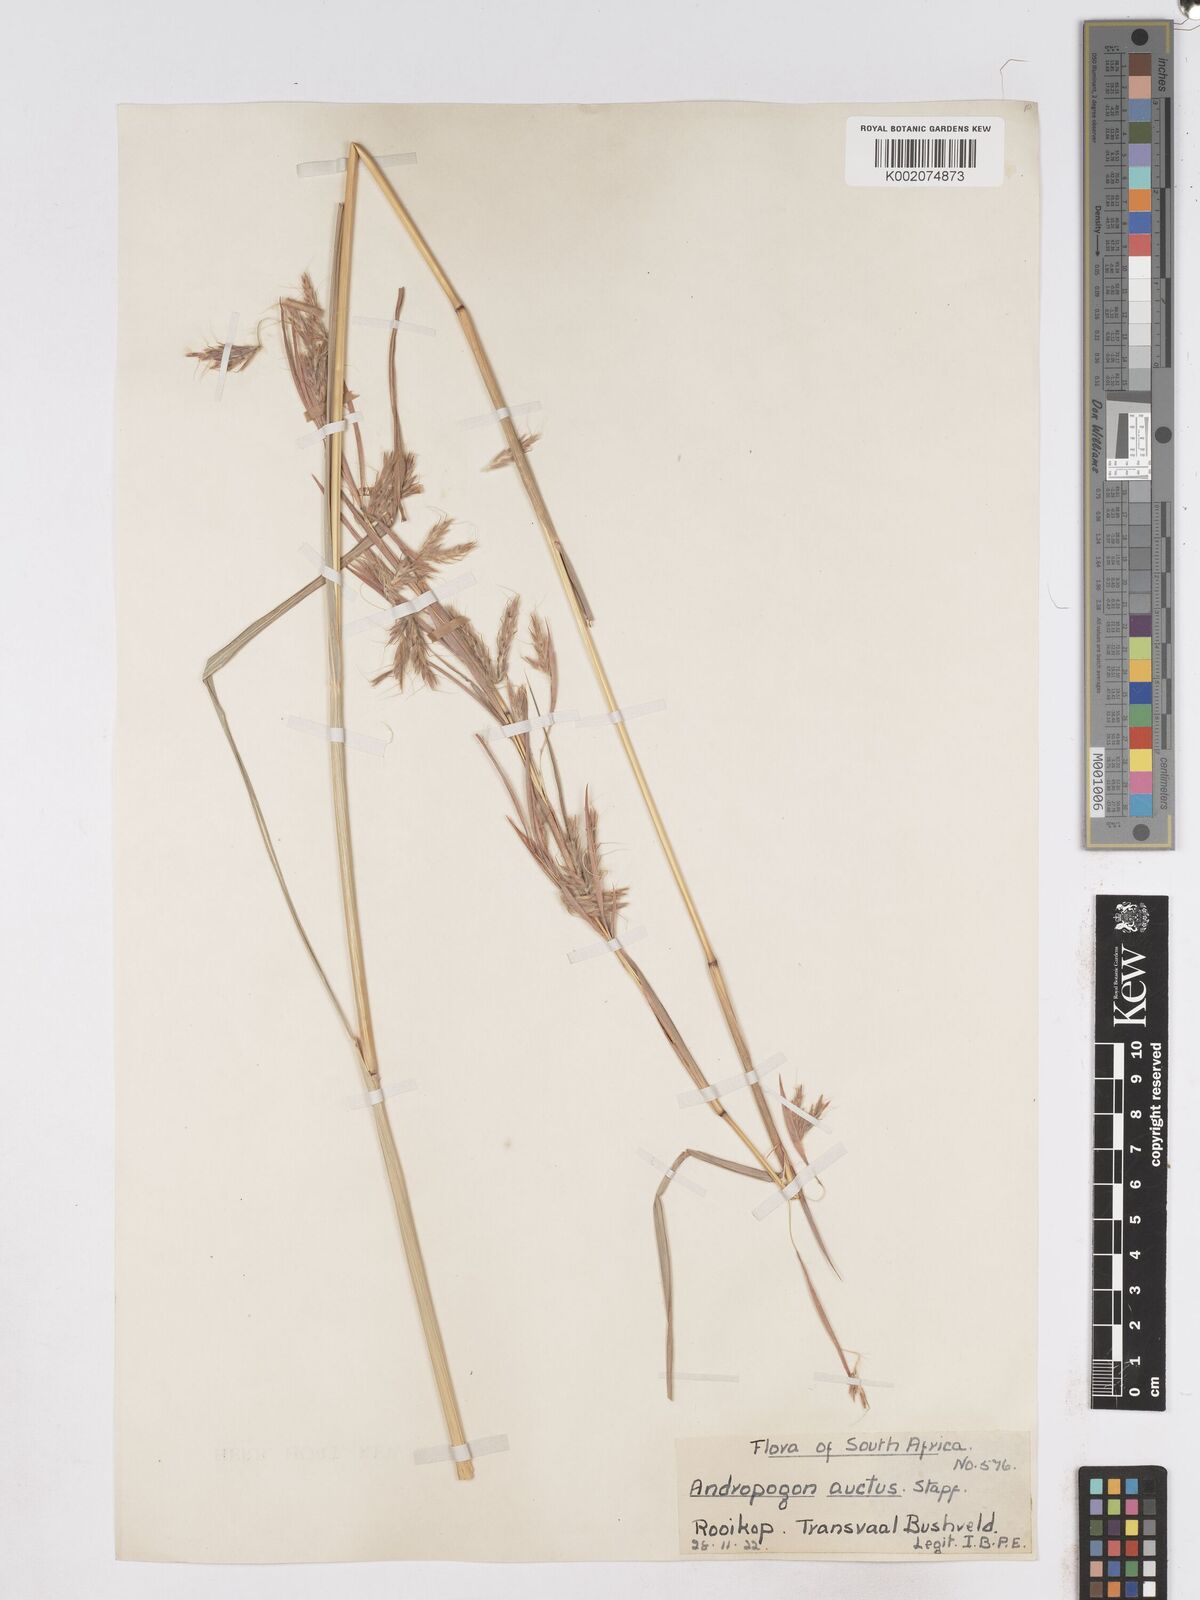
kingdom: Plantae
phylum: Tracheophyta
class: Liliopsida
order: Poales
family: Poaceae
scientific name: Poaceae
